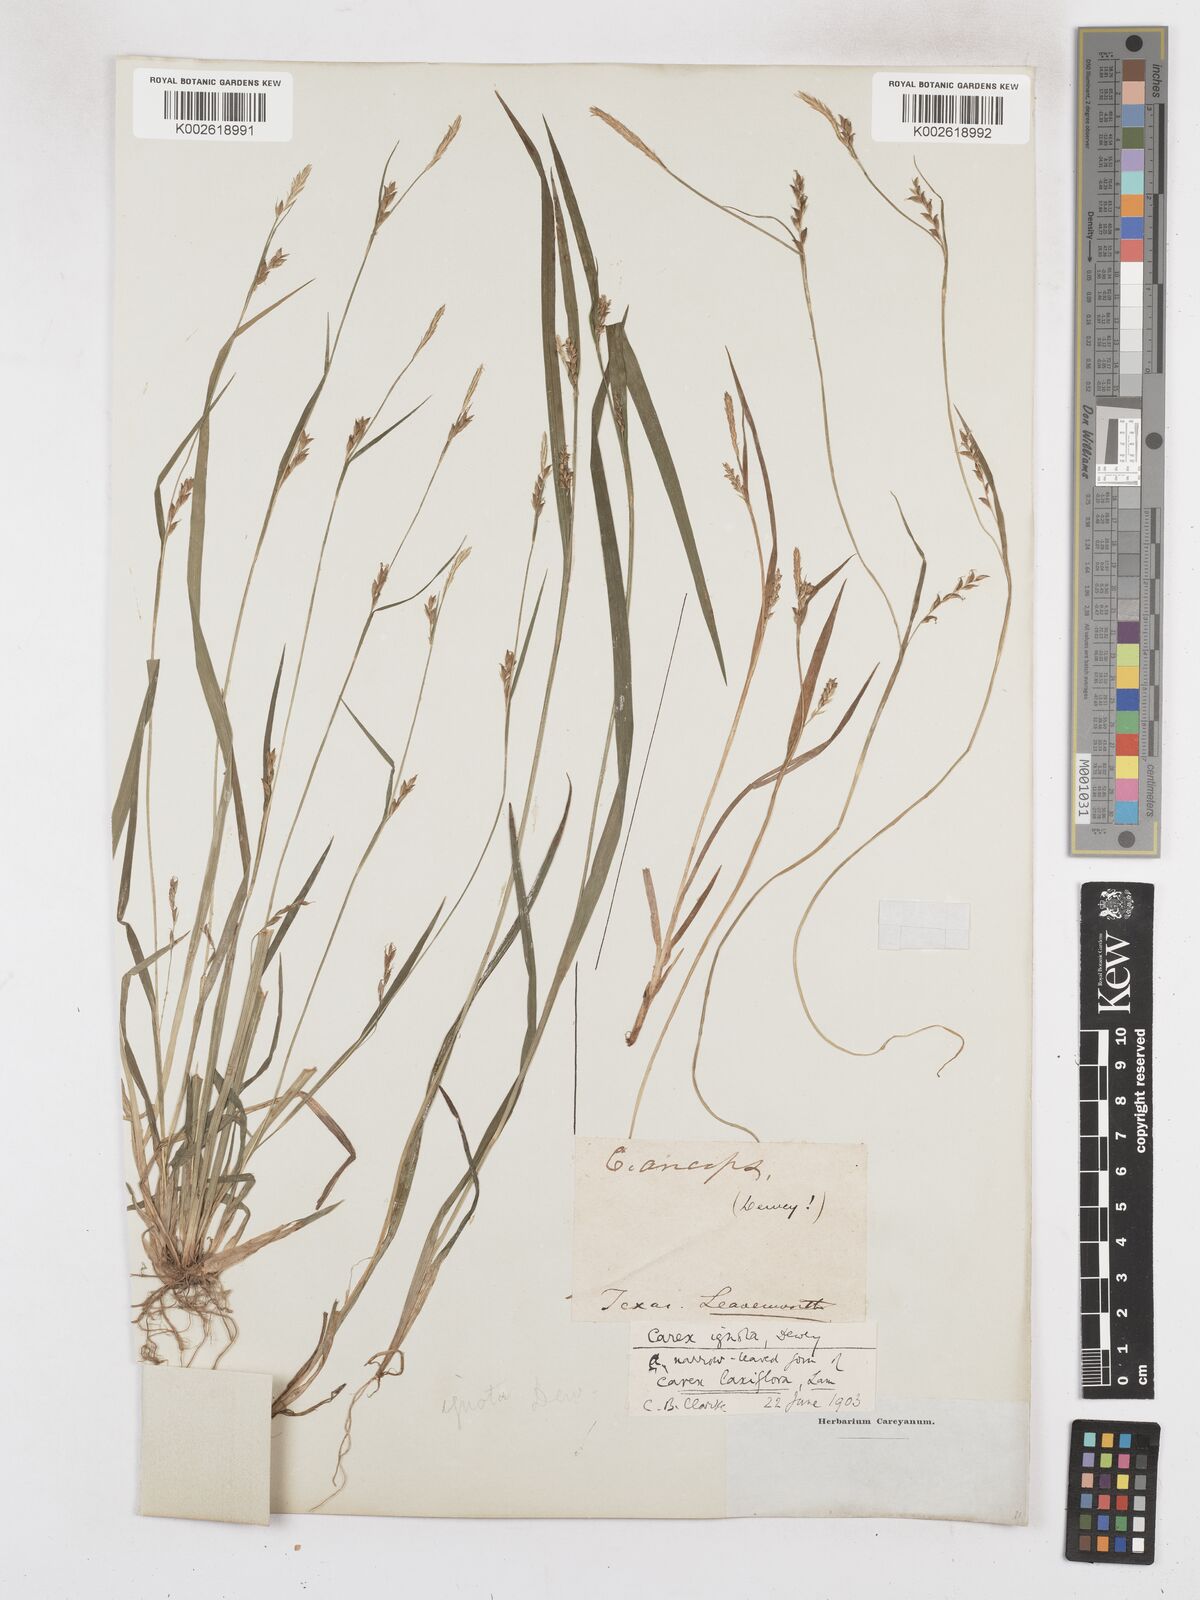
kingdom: Plantae
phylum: Tracheophyta
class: Liliopsida
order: Poales
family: Cyperaceae
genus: Carex
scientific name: Carex striatula
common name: Lined sedge
